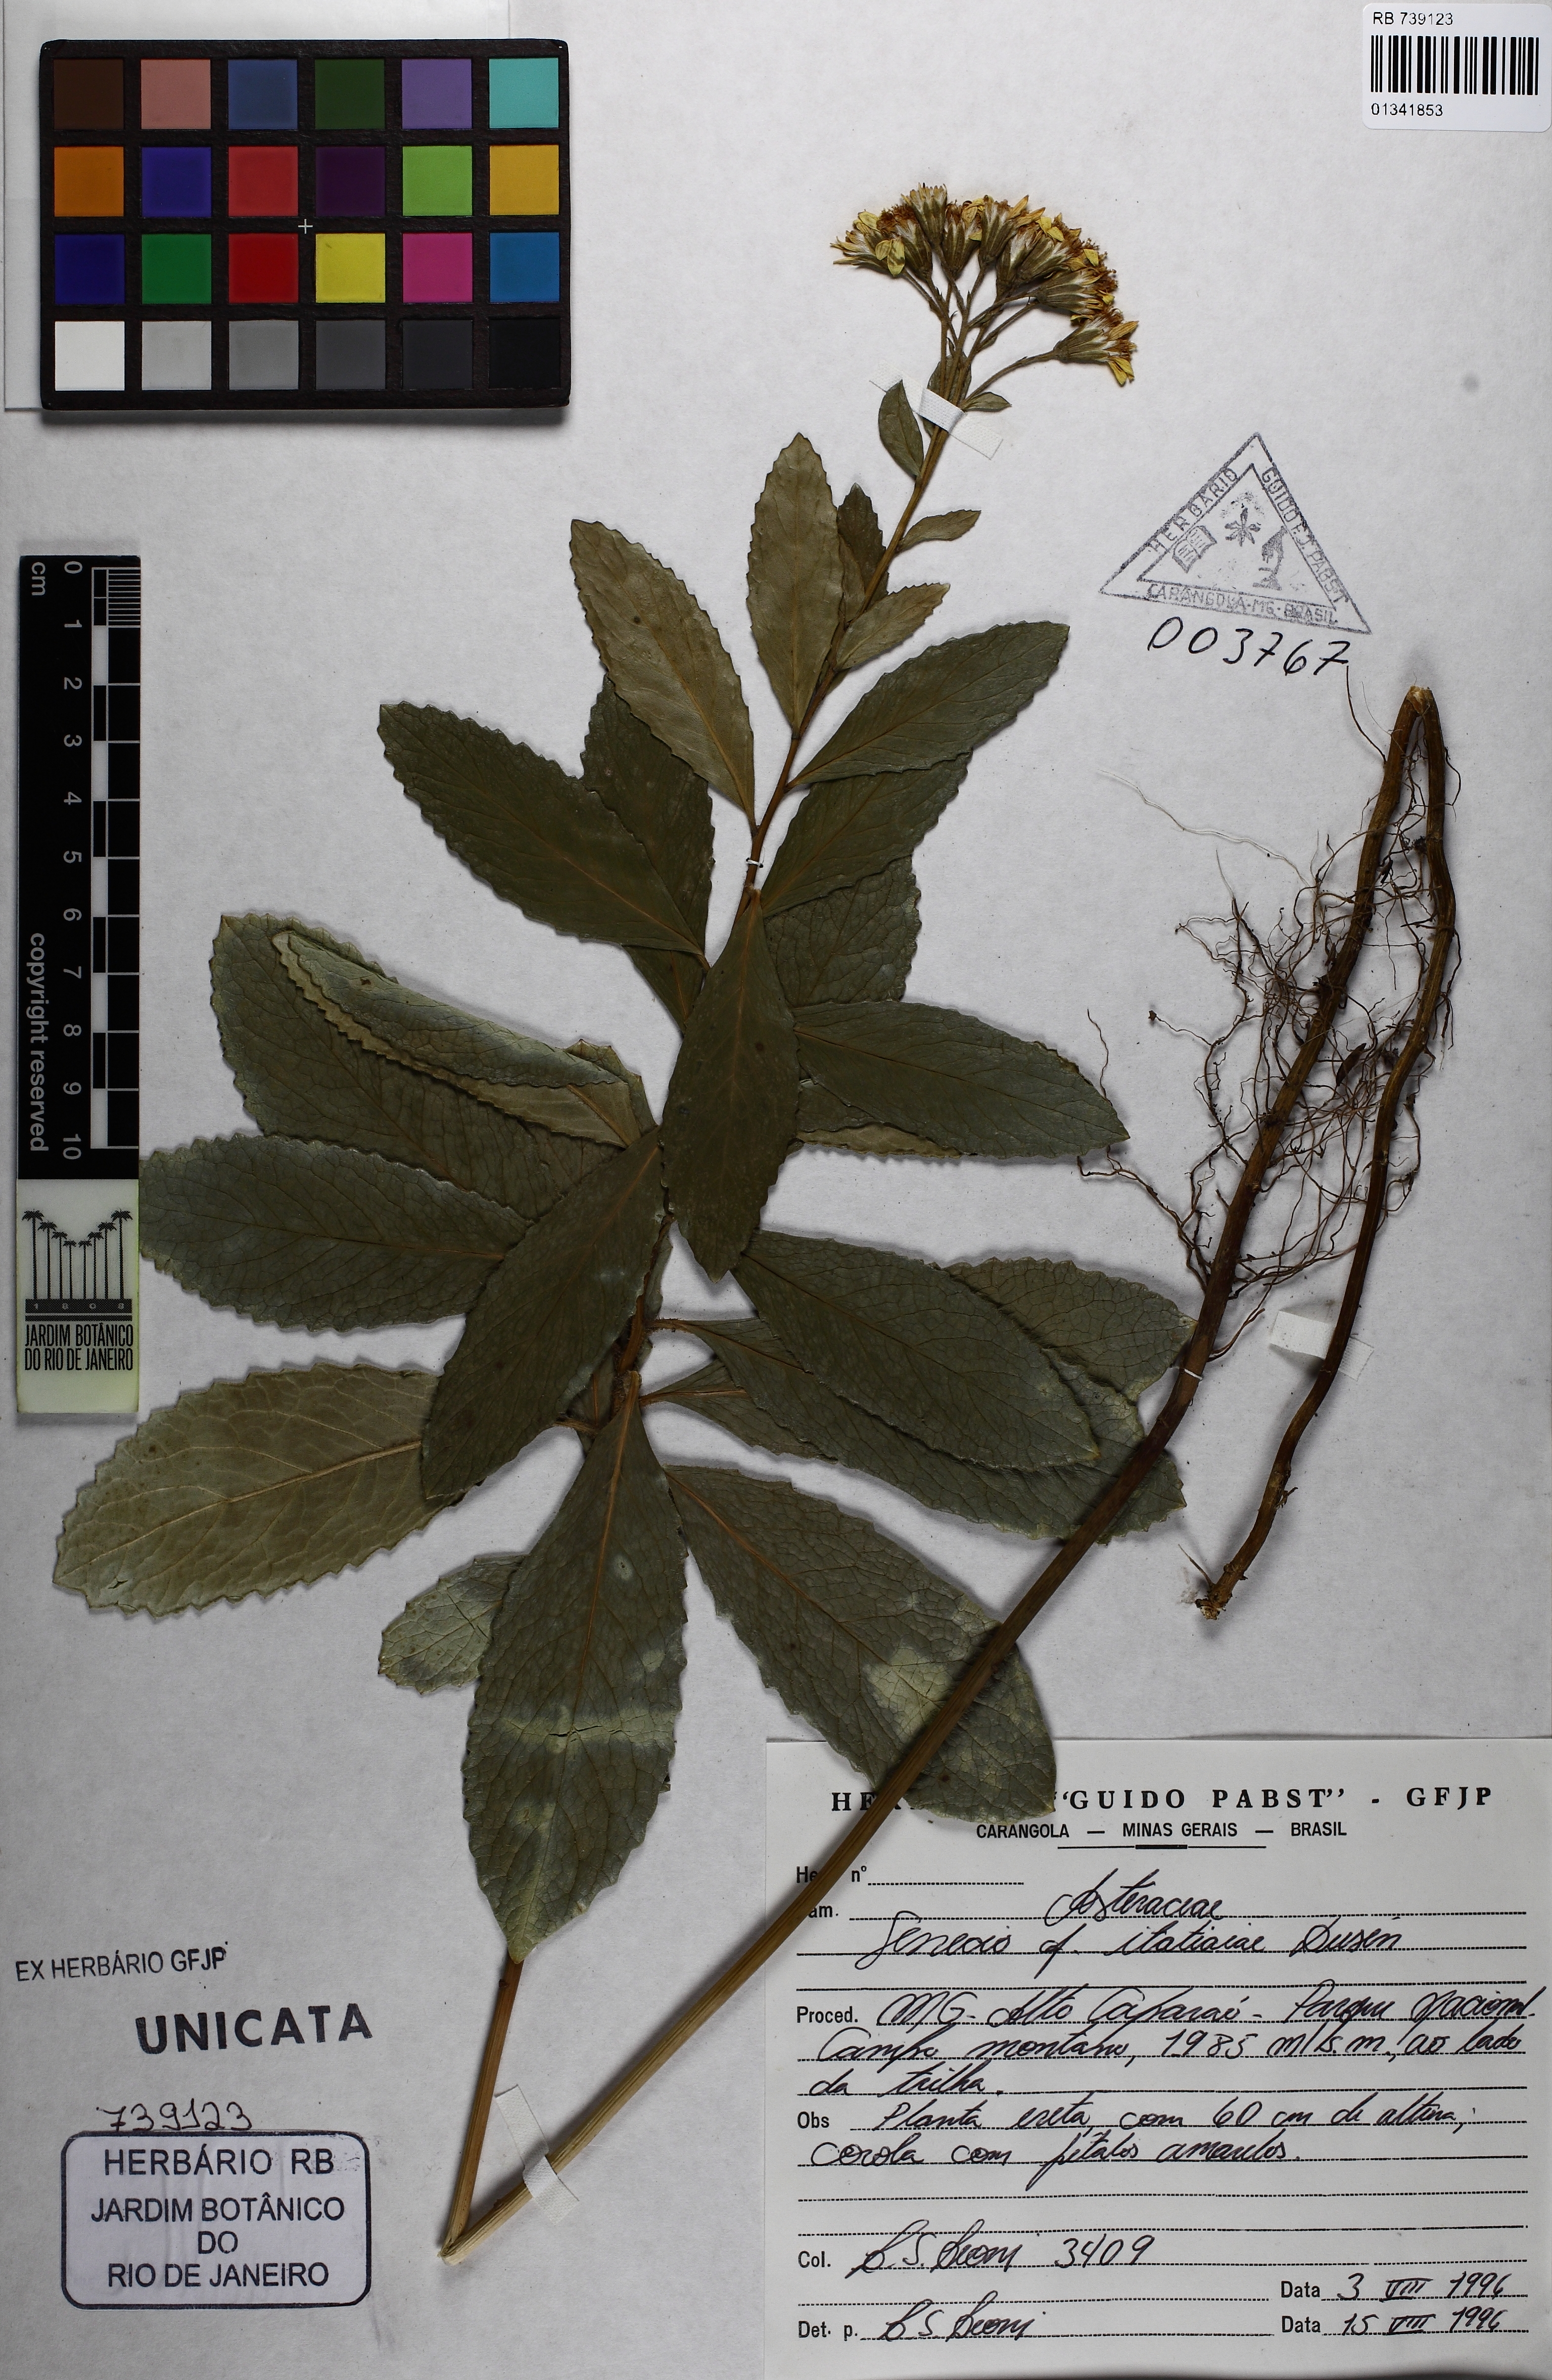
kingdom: Plantae
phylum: Tracheophyta
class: Magnoliopsida
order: Asterales
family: Asteraceae
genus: Graphistylis
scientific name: Graphistylis itatiaiae
